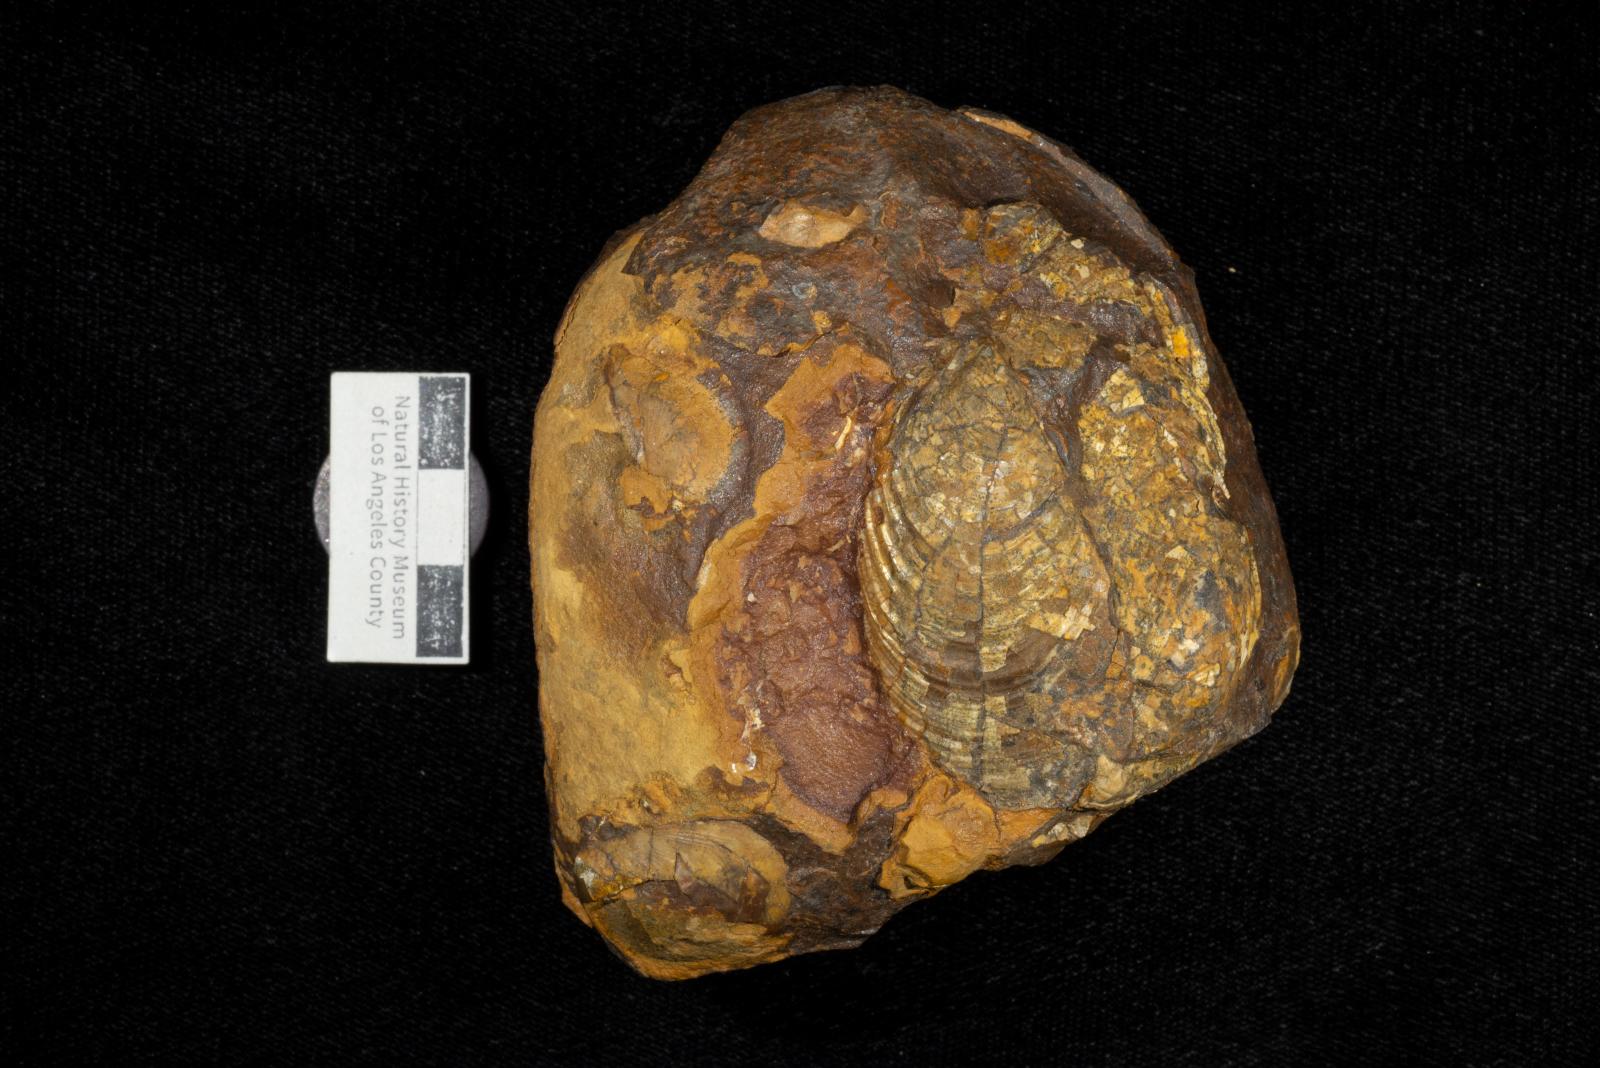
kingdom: Animalia
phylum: Mollusca
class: Bivalvia
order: Myalinida
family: Inoceramidae
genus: Sphenoceramus
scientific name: Sphenoceramus Inoceramus orientalis
